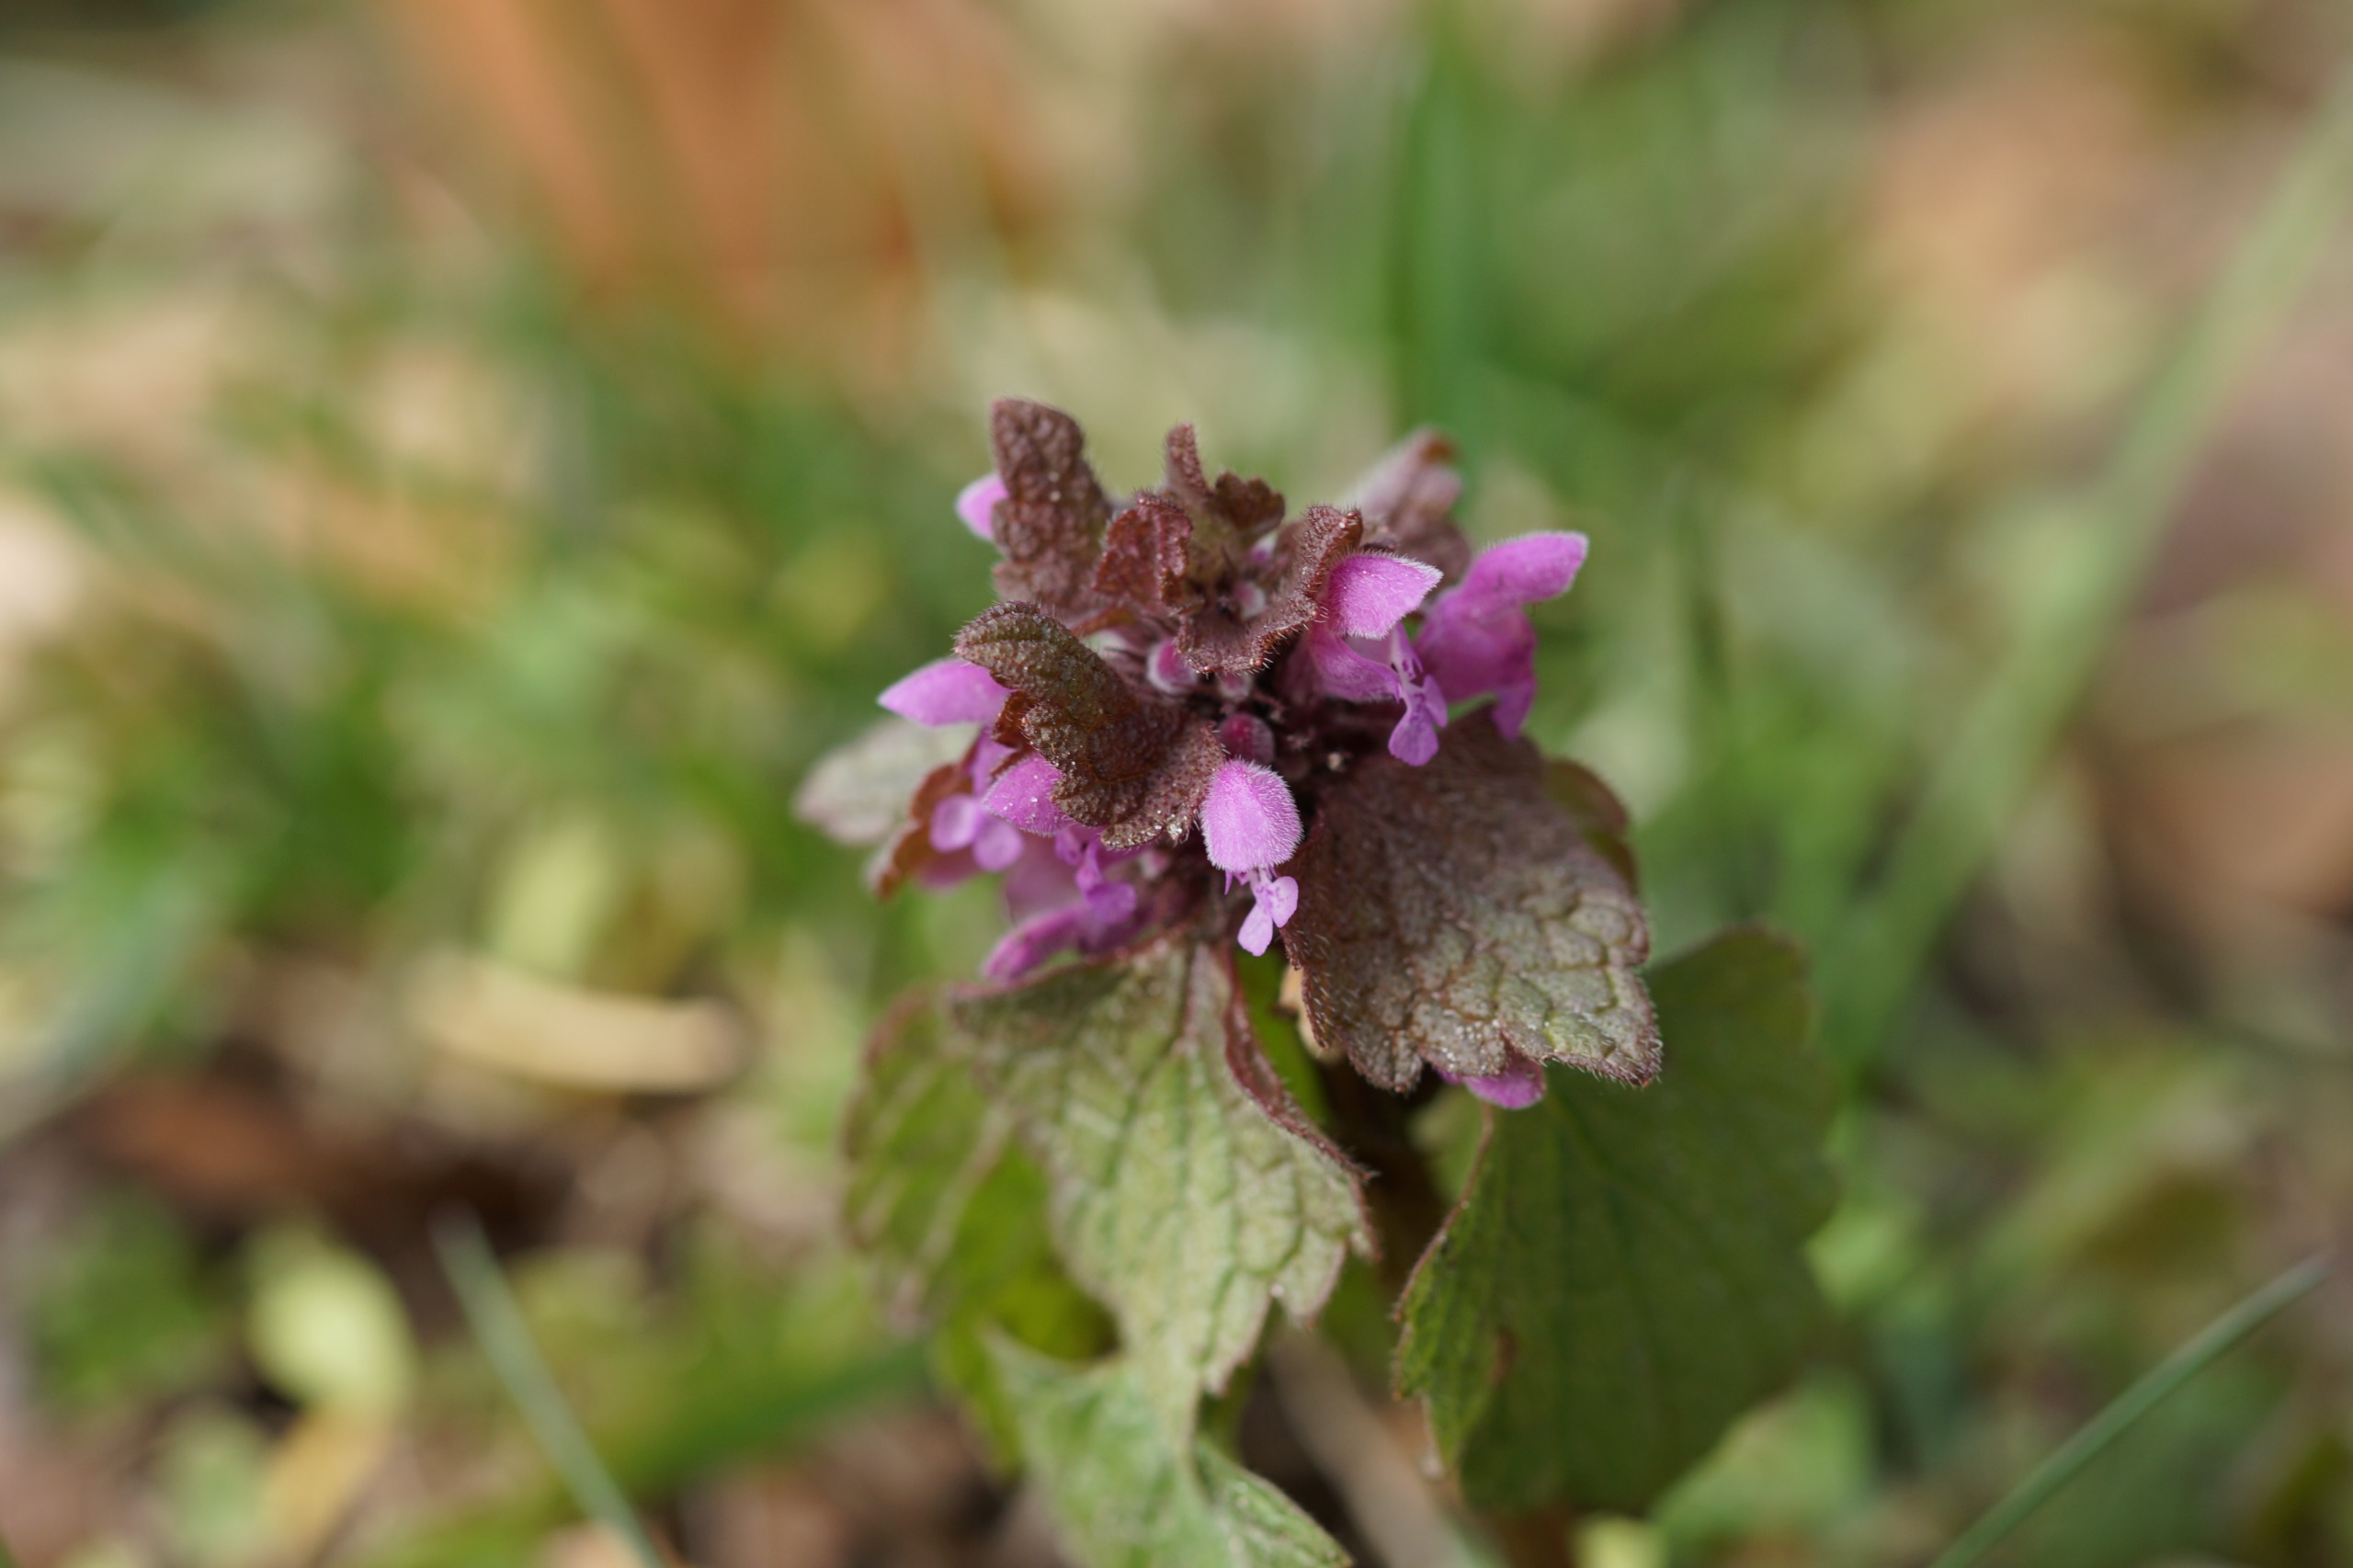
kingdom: Plantae
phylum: Tracheophyta
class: Magnoliopsida
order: Lamiales
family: Lamiaceae
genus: Lamium
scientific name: Lamium purpureum
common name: Rød tvetand
